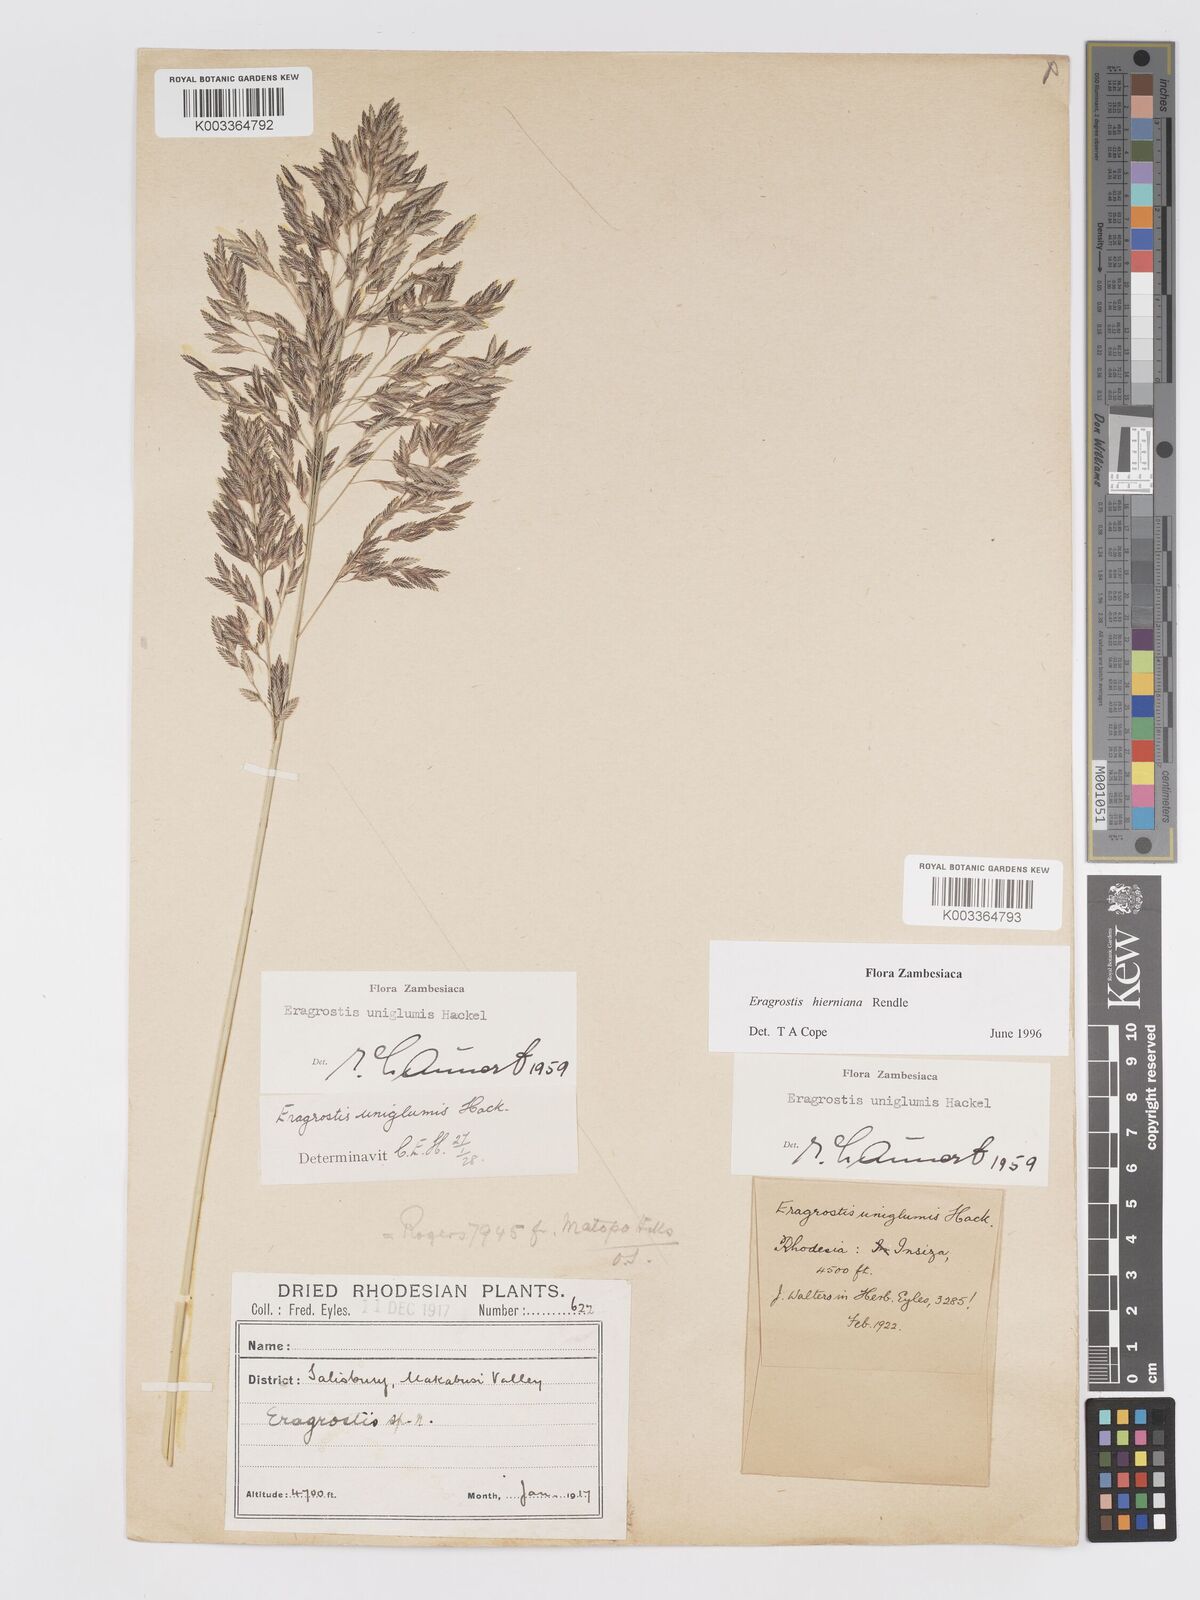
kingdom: Plantae
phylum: Tracheophyta
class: Liliopsida
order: Poales
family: Poaceae
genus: Eragrostis
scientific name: Eragrostis hierniana
